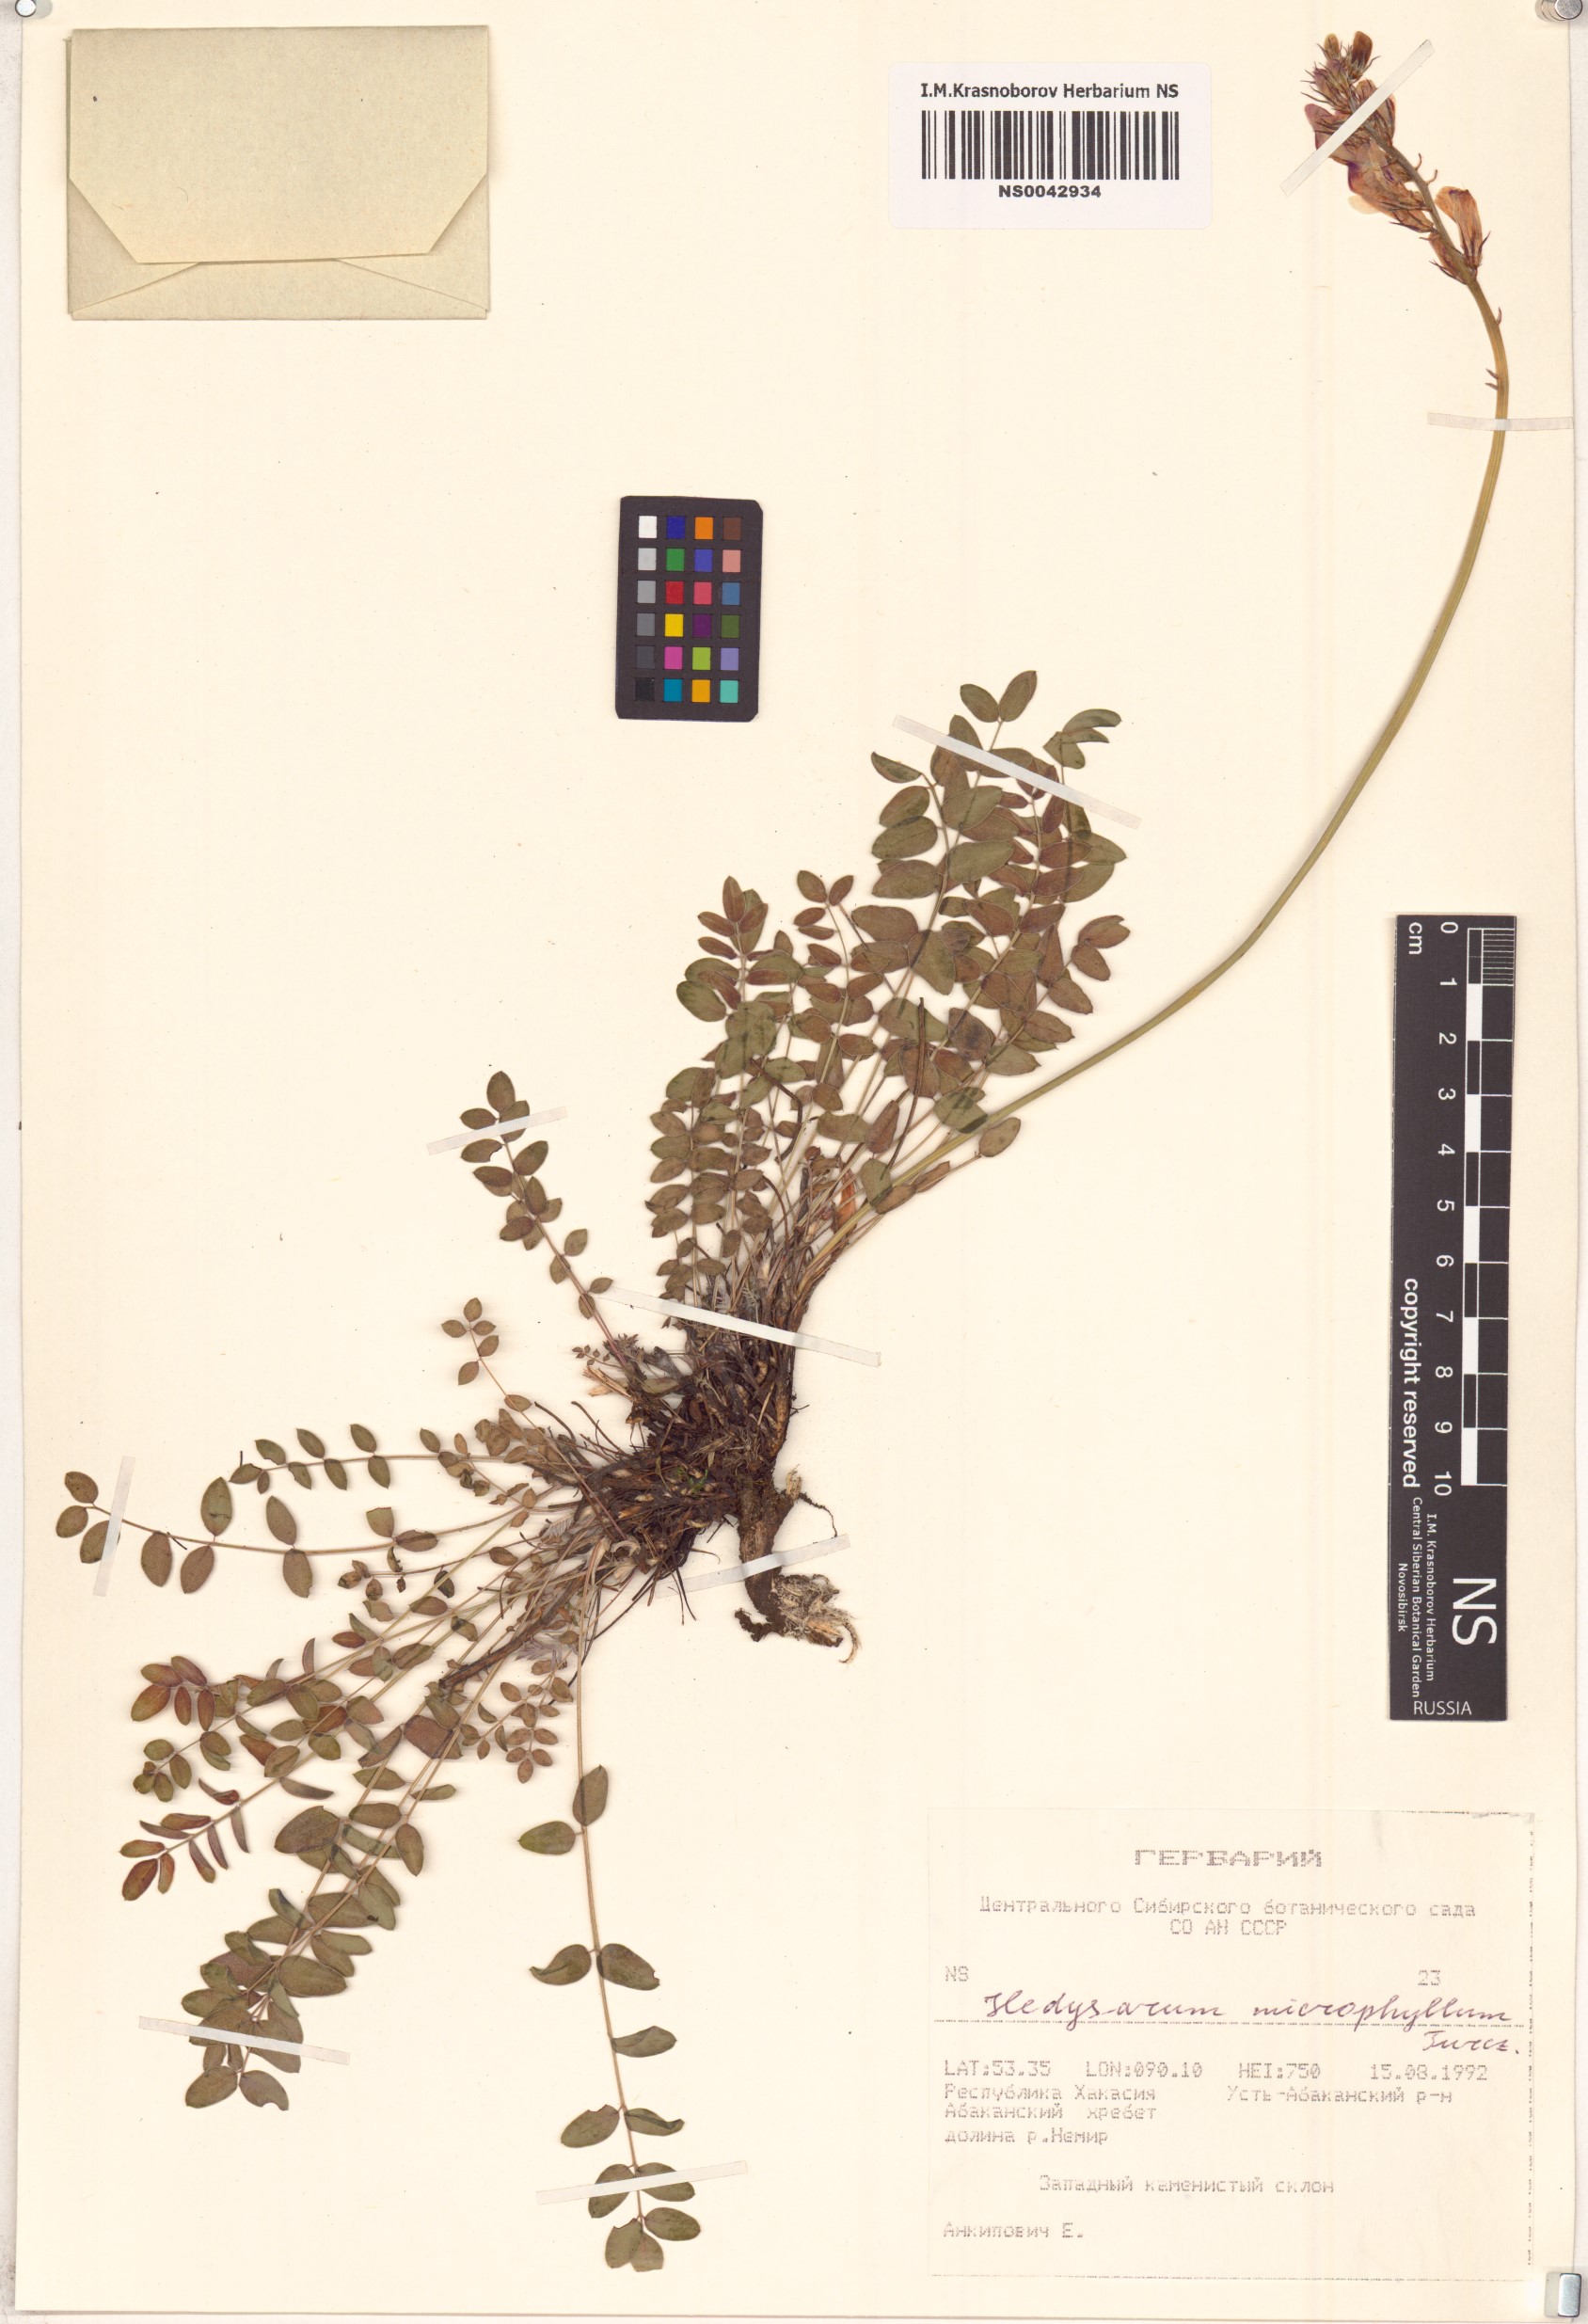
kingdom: Plantae
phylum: Tracheophyta
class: Magnoliopsida
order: Fabales
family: Fabaceae
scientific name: Fabaceae
